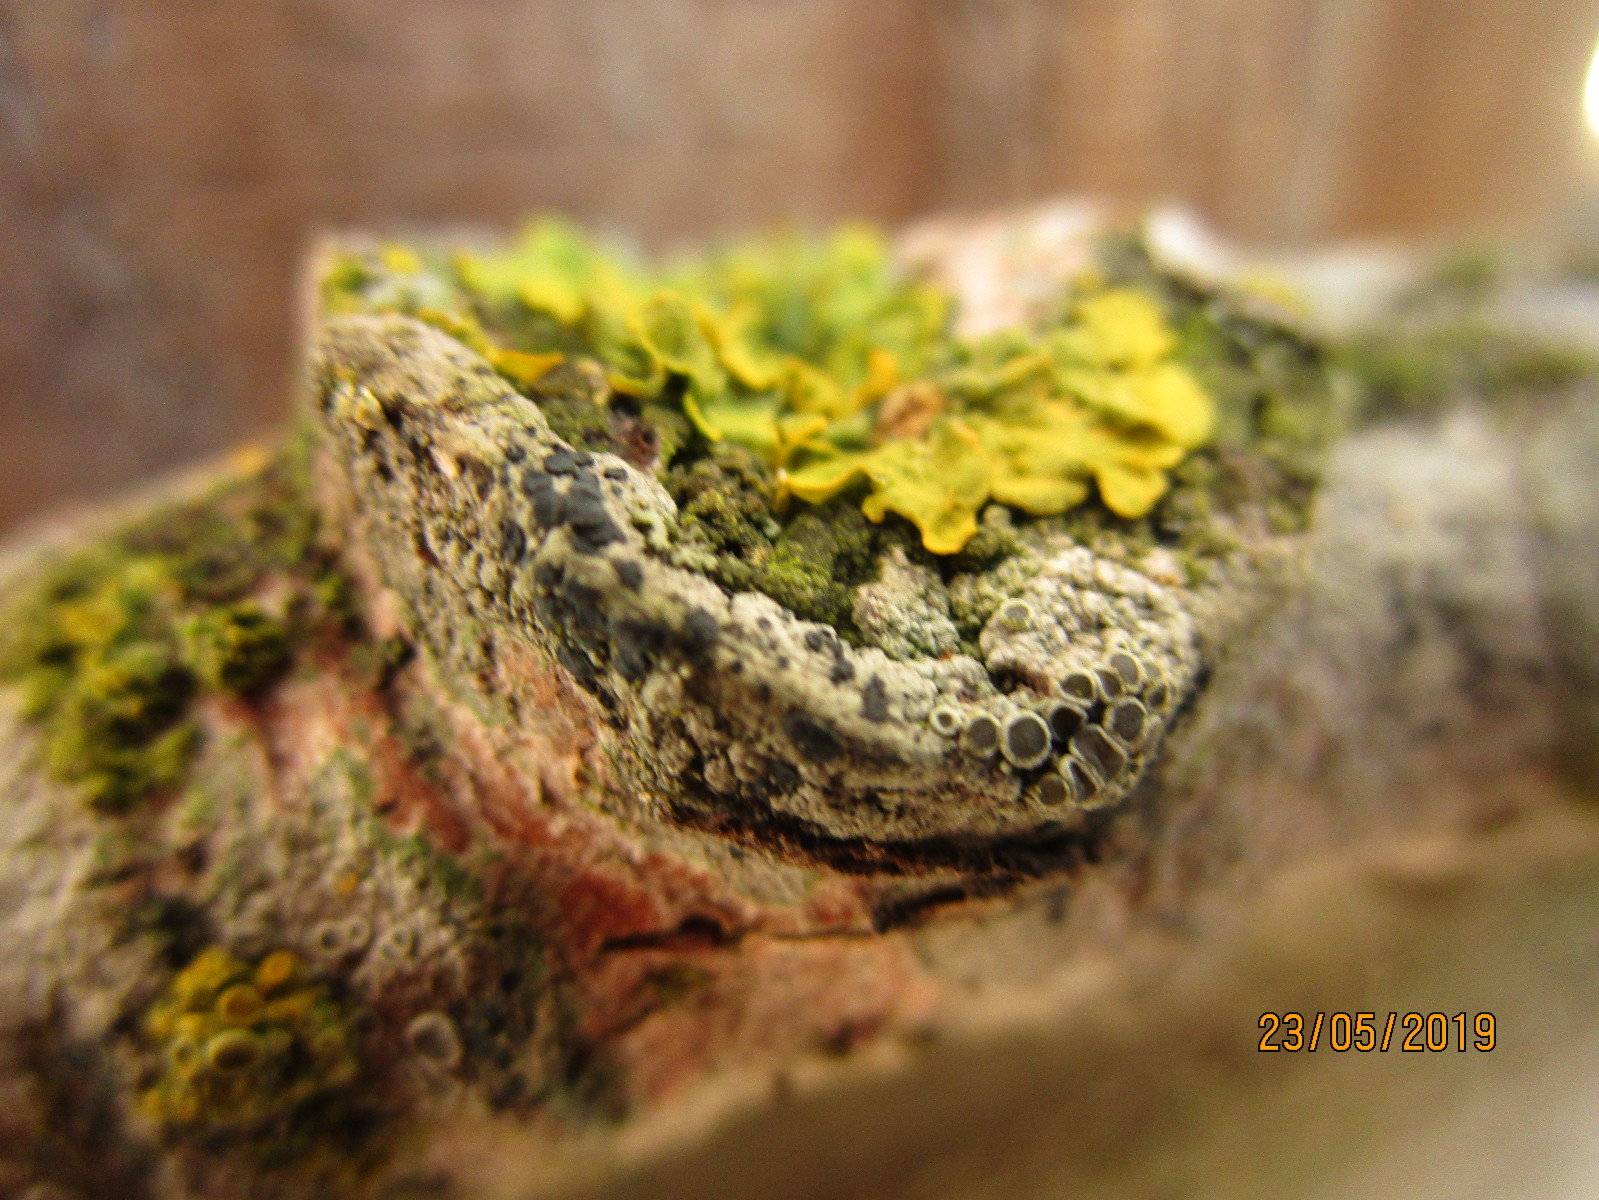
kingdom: Fungi
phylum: Ascomycota
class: Lecanoromycetes
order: Teloschistales
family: Teloschistaceae
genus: Xanthoria
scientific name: Xanthoria parietina
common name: almindelig væggelav
